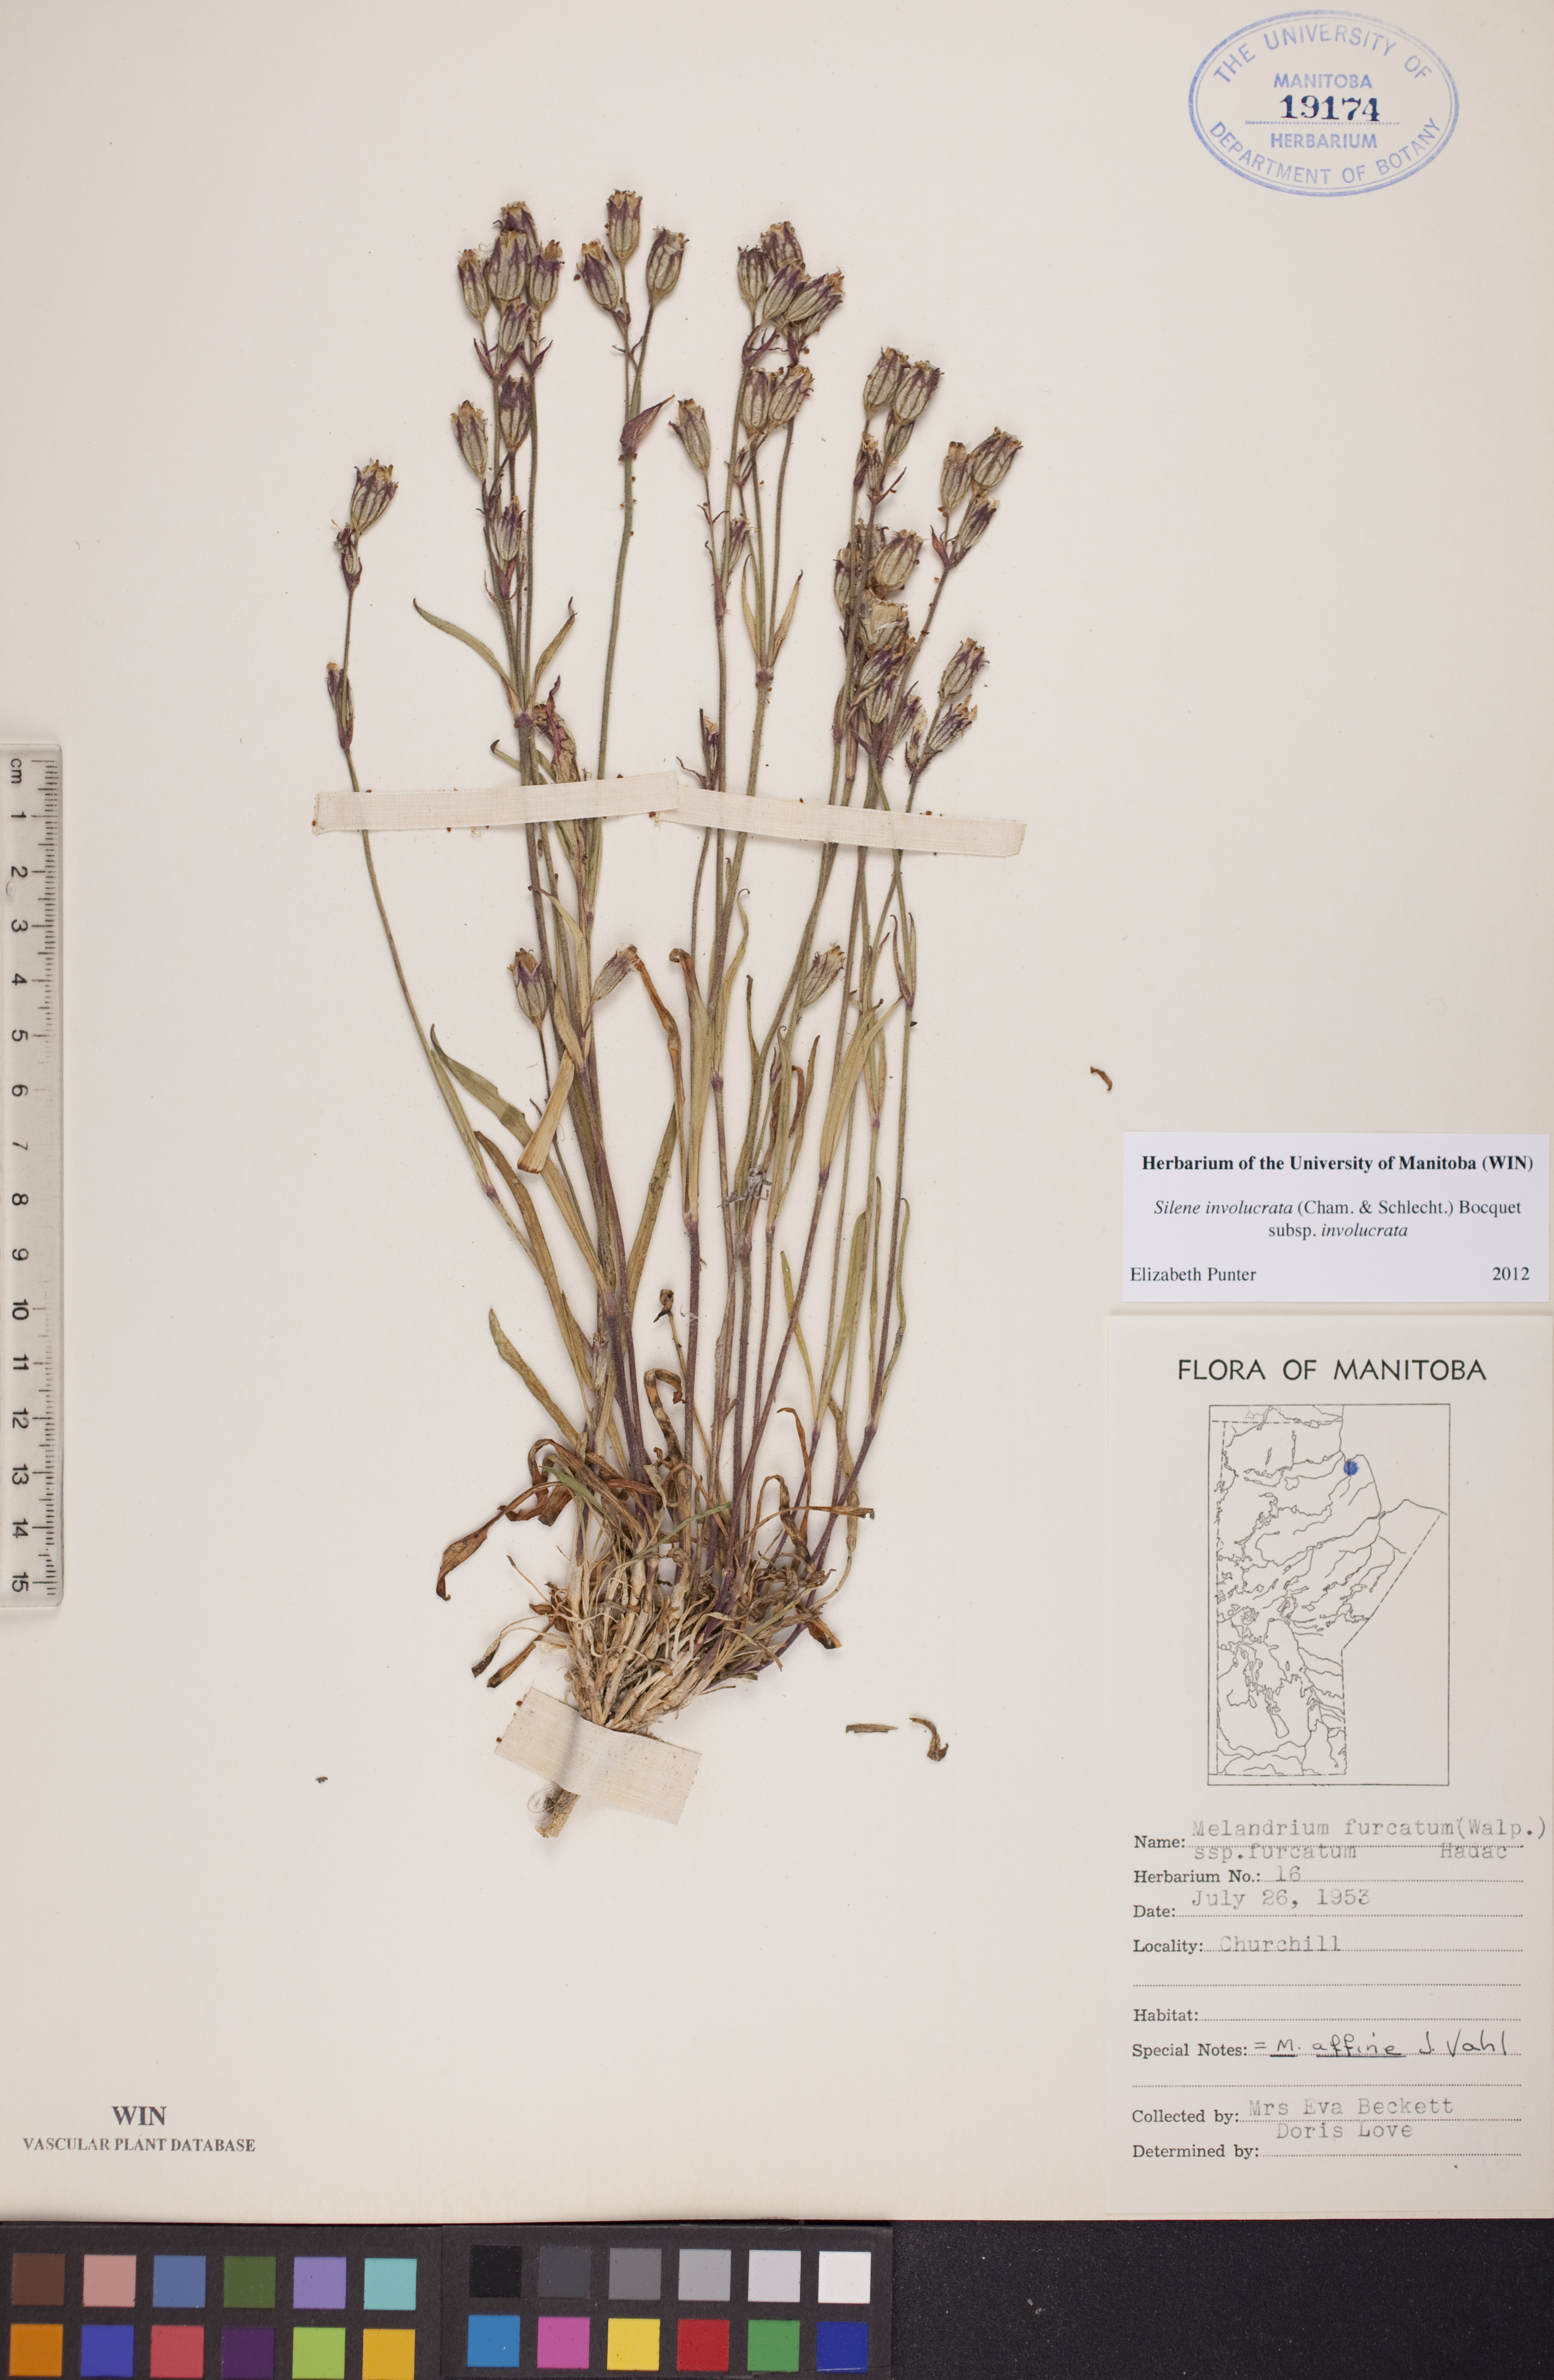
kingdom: Plantae
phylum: Tracheophyta
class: Magnoliopsida
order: Caryophyllales
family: Caryophyllaceae
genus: Silene
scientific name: Silene involucrata
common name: Greater arctic campion
